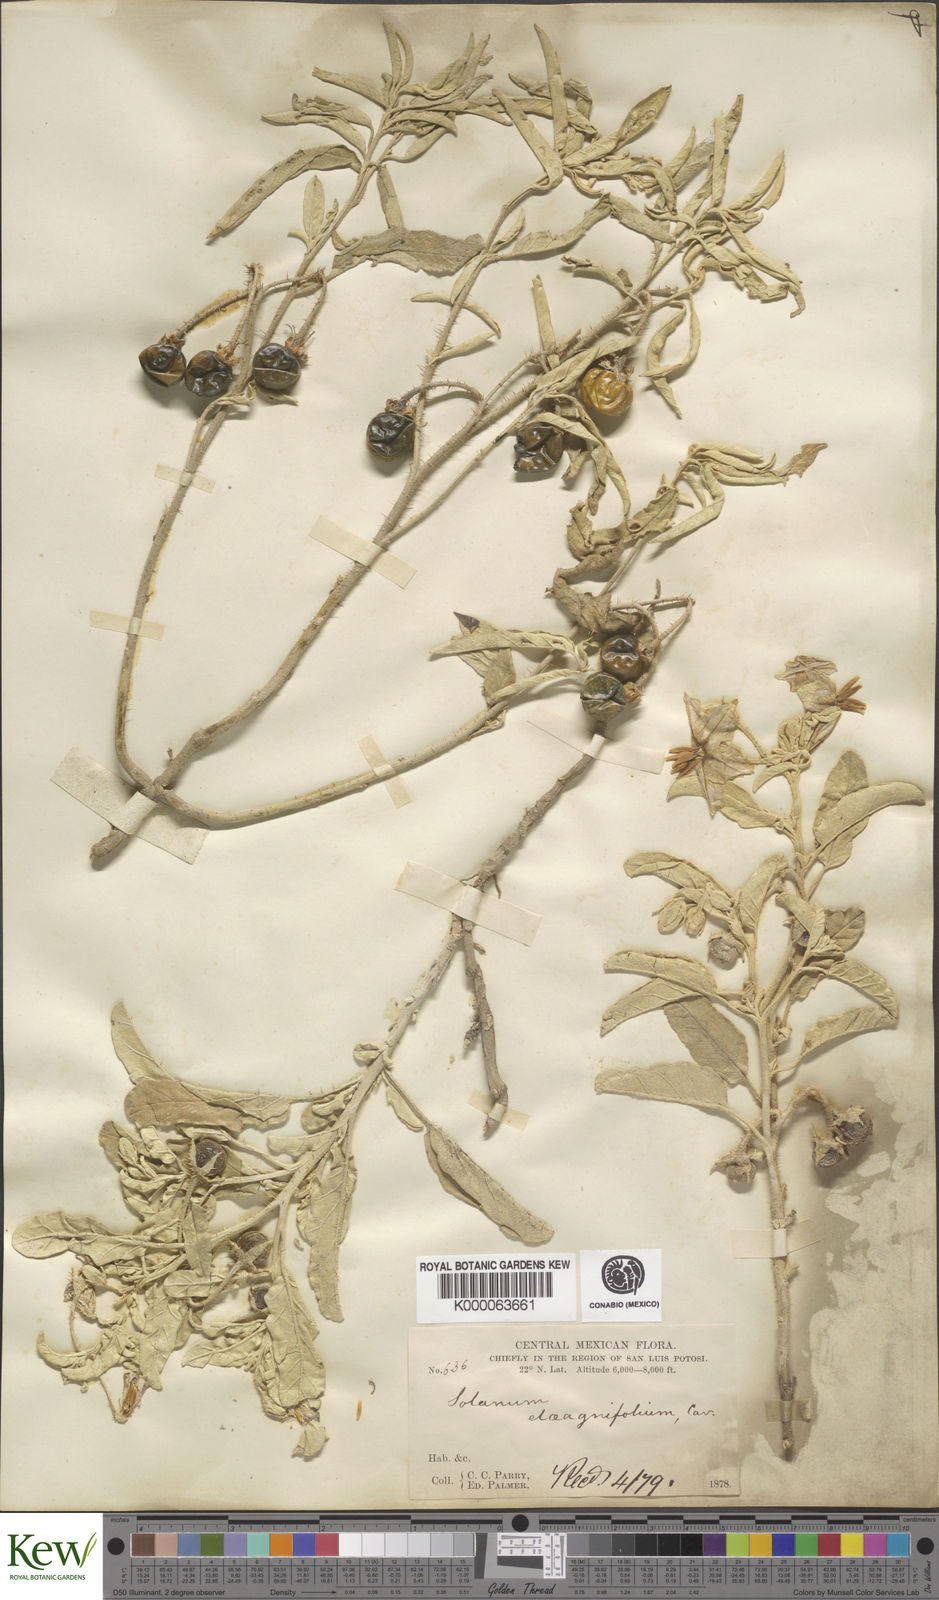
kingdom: Plantae
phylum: Tracheophyta
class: Magnoliopsida
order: Solanales
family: Solanaceae
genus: Solanum
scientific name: Solanum elaeagnifolium
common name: Silverleaf nightshade
